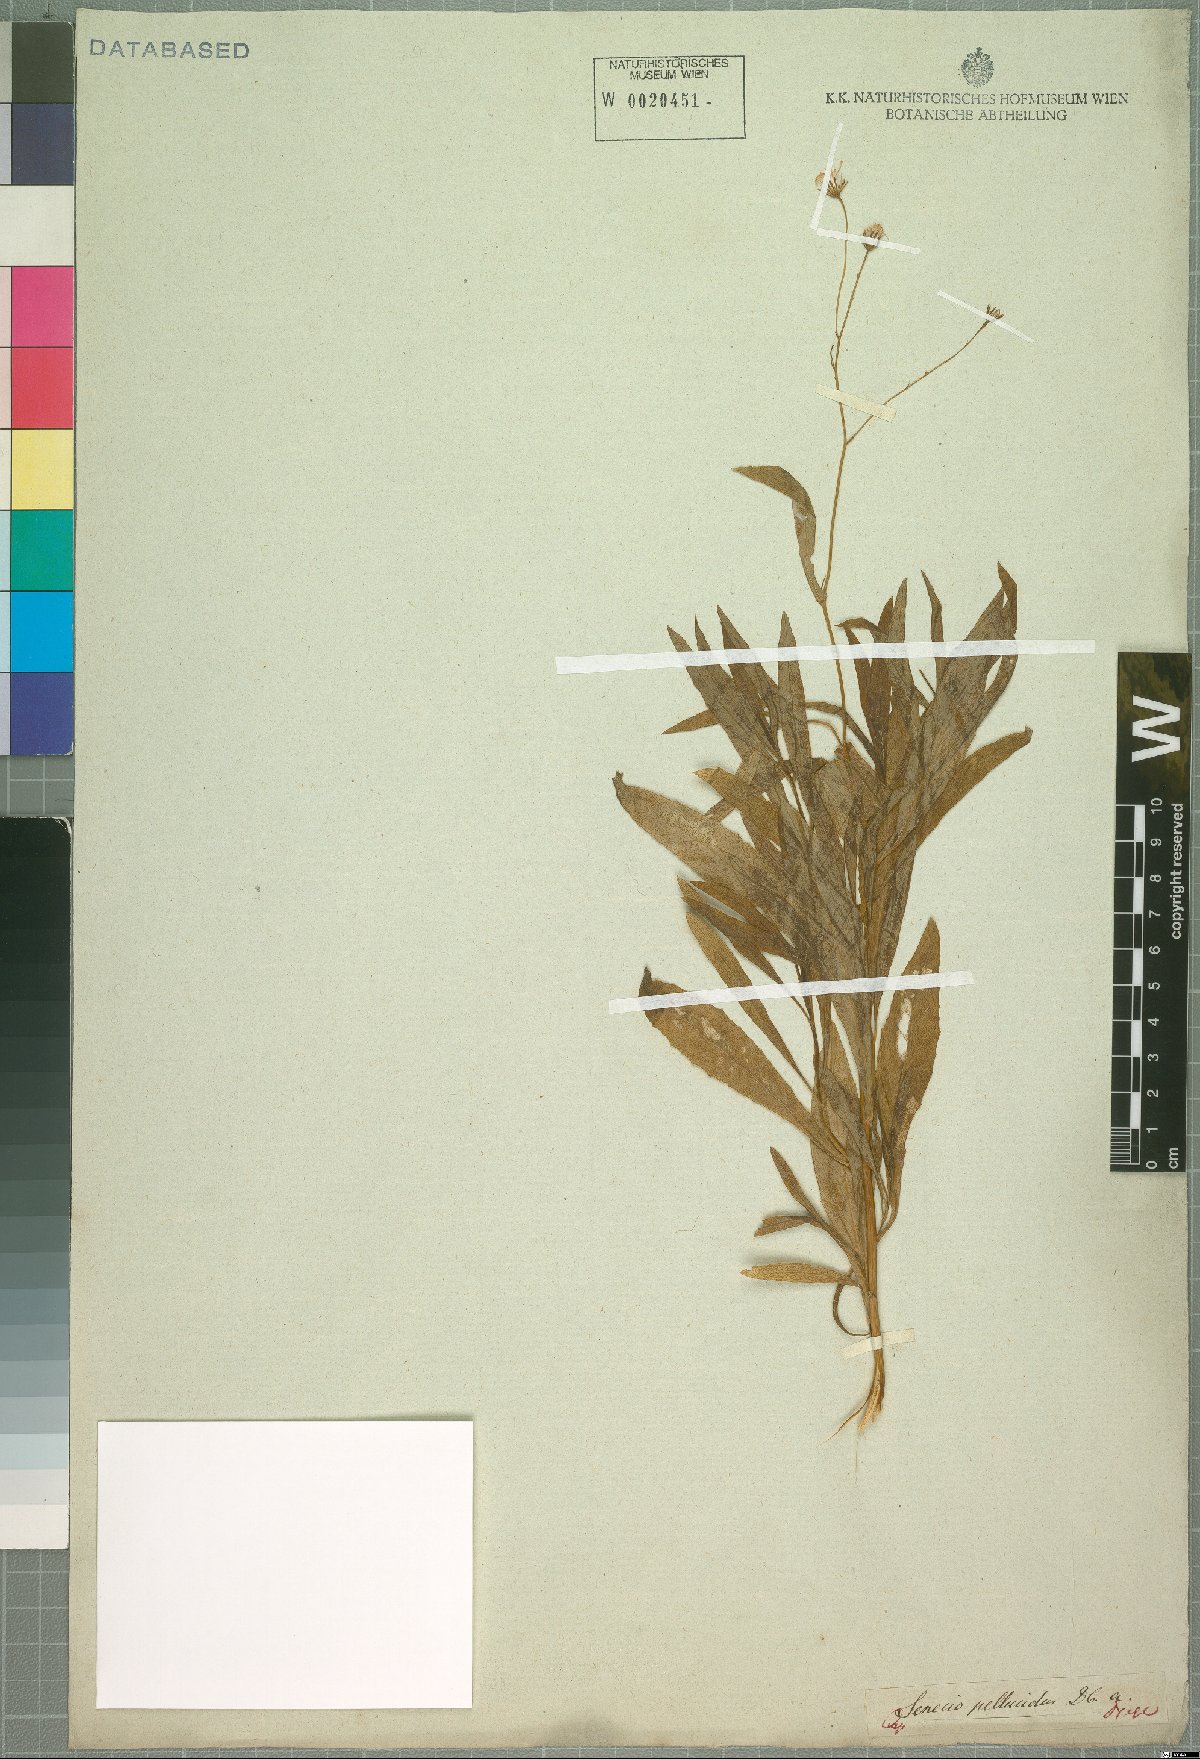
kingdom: Plantae
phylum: Tracheophyta
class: Magnoliopsida
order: Asterales
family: Asteraceae
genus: Senecio
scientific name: Senecio pellucidus
